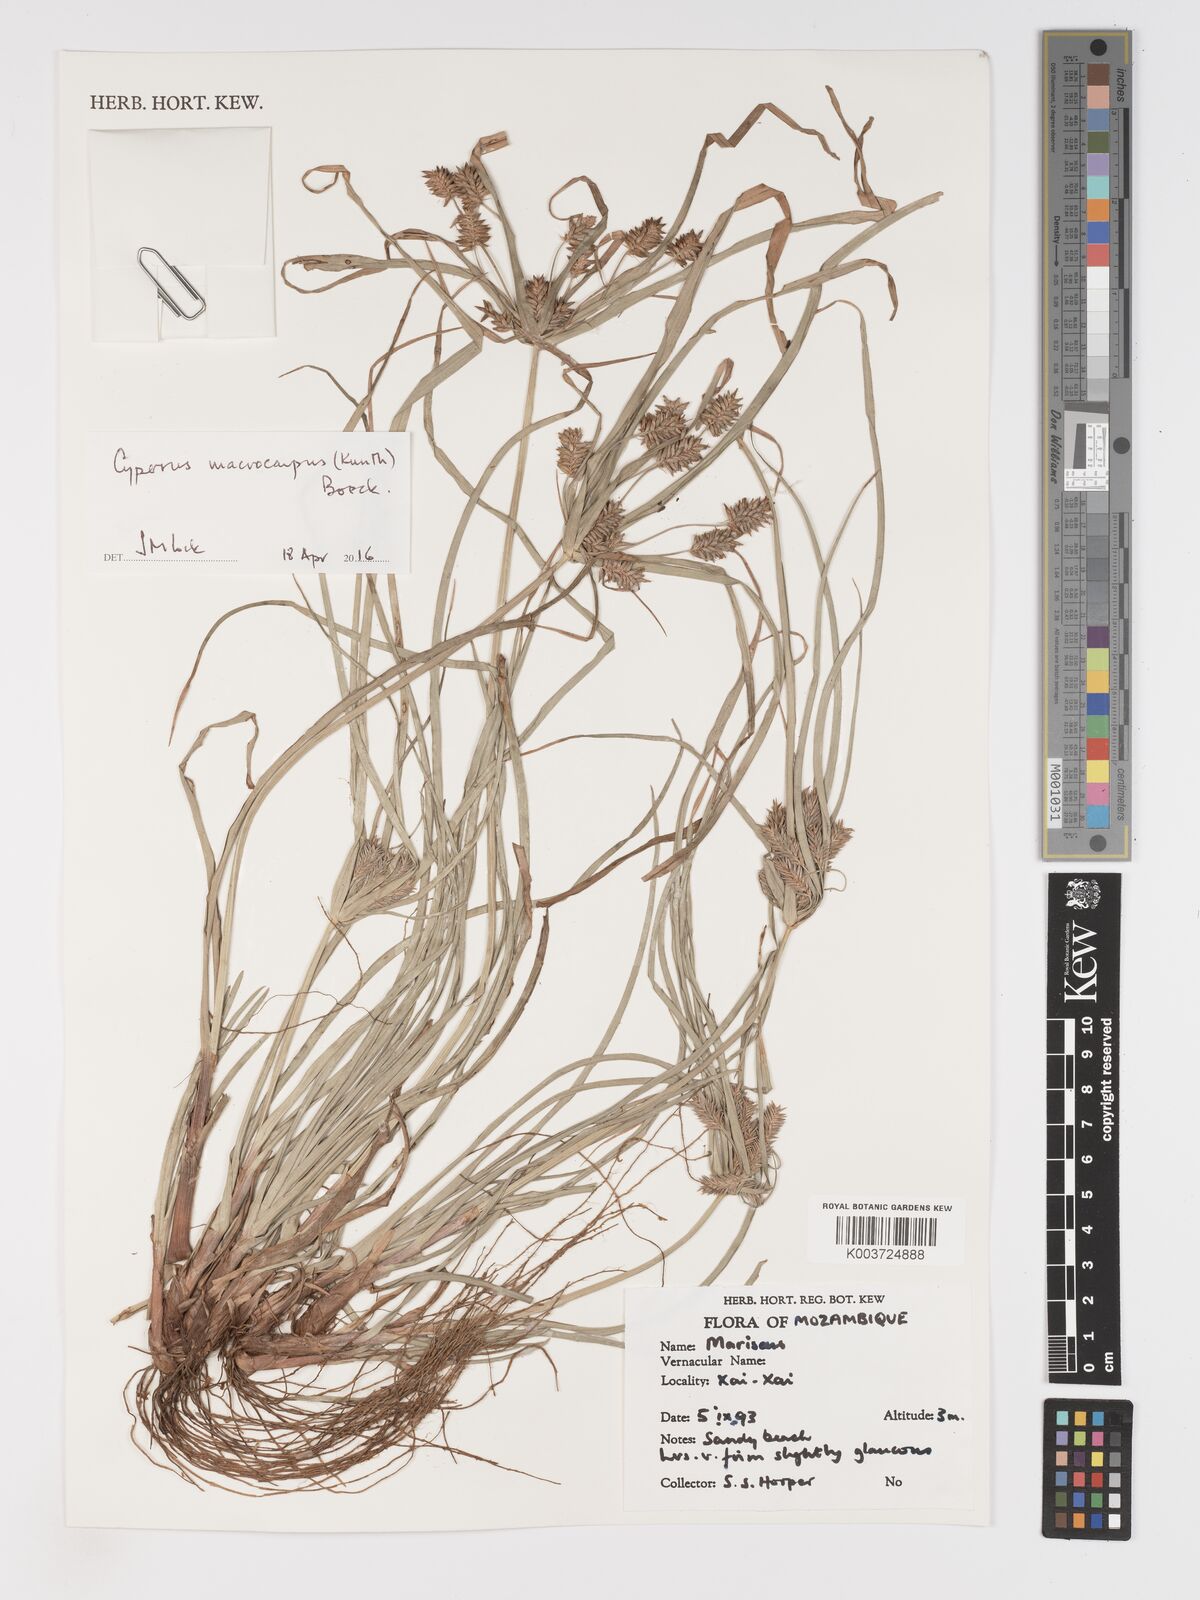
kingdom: Plantae
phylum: Tracheophyta
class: Liliopsida
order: Poales
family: Cyperaceae
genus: Cyperus
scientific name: Cyperus macrocarpus
